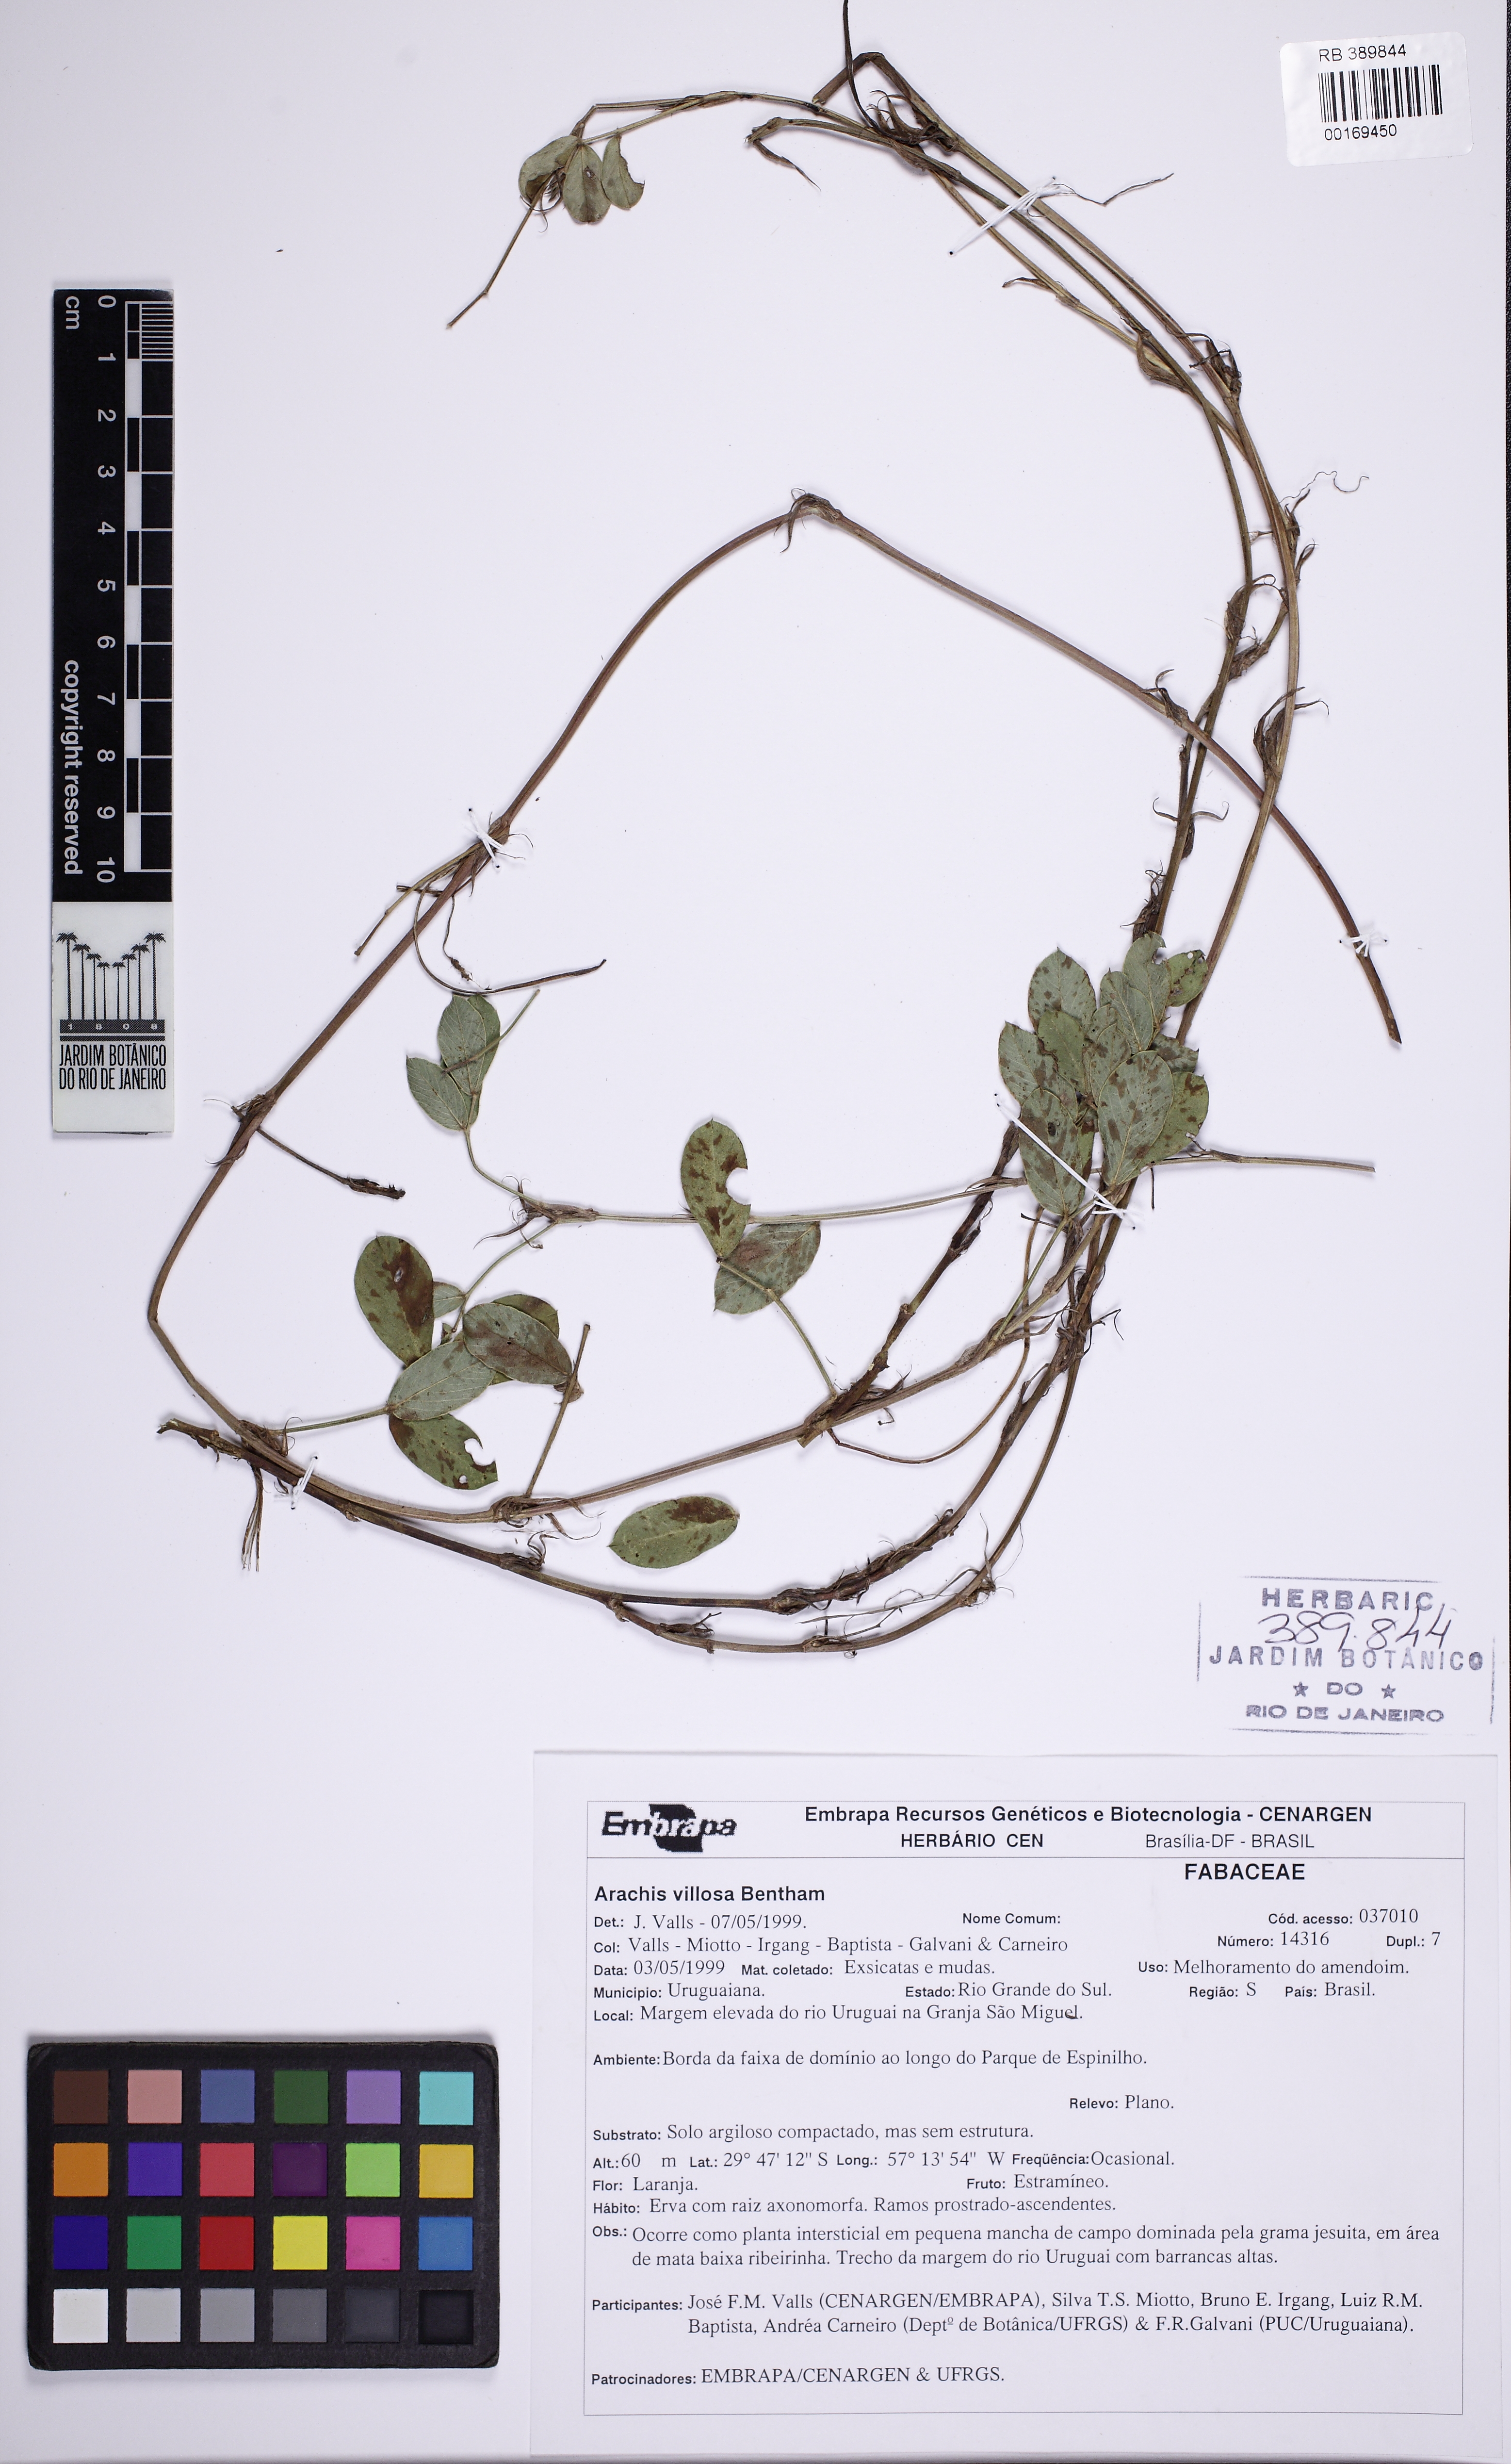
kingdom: Plantae
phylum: Tracheophyta
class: Magnoliopsida
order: Fabales
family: Fabaceae
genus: Arachis
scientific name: Arachis villosa
